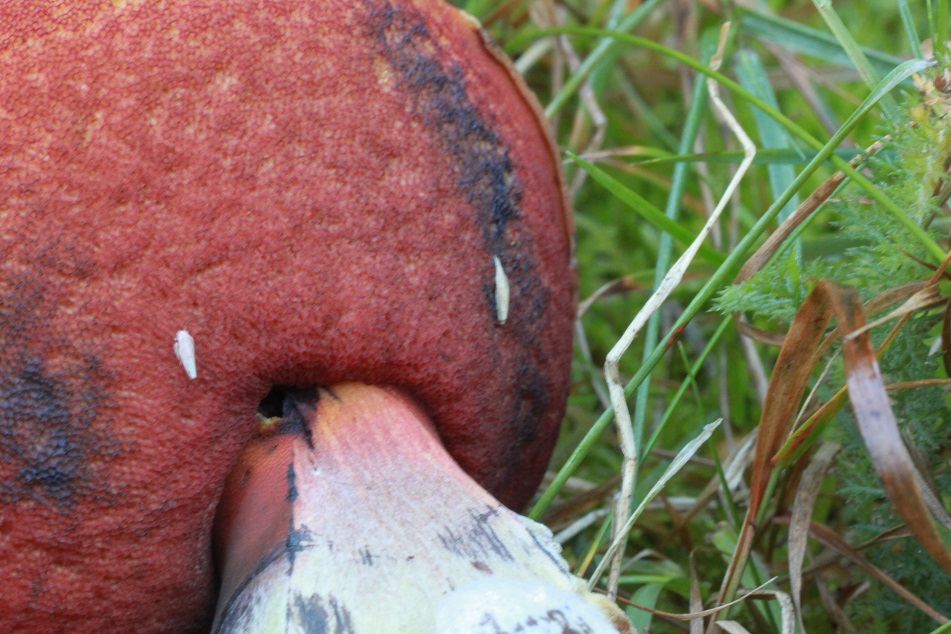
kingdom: Fungi
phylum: Basidiomycota
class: Agaricomycetes
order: Boletales
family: Boletaceae
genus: Neoboletus
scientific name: Neoboletus erythropus
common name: punktstokket indigorørhat
